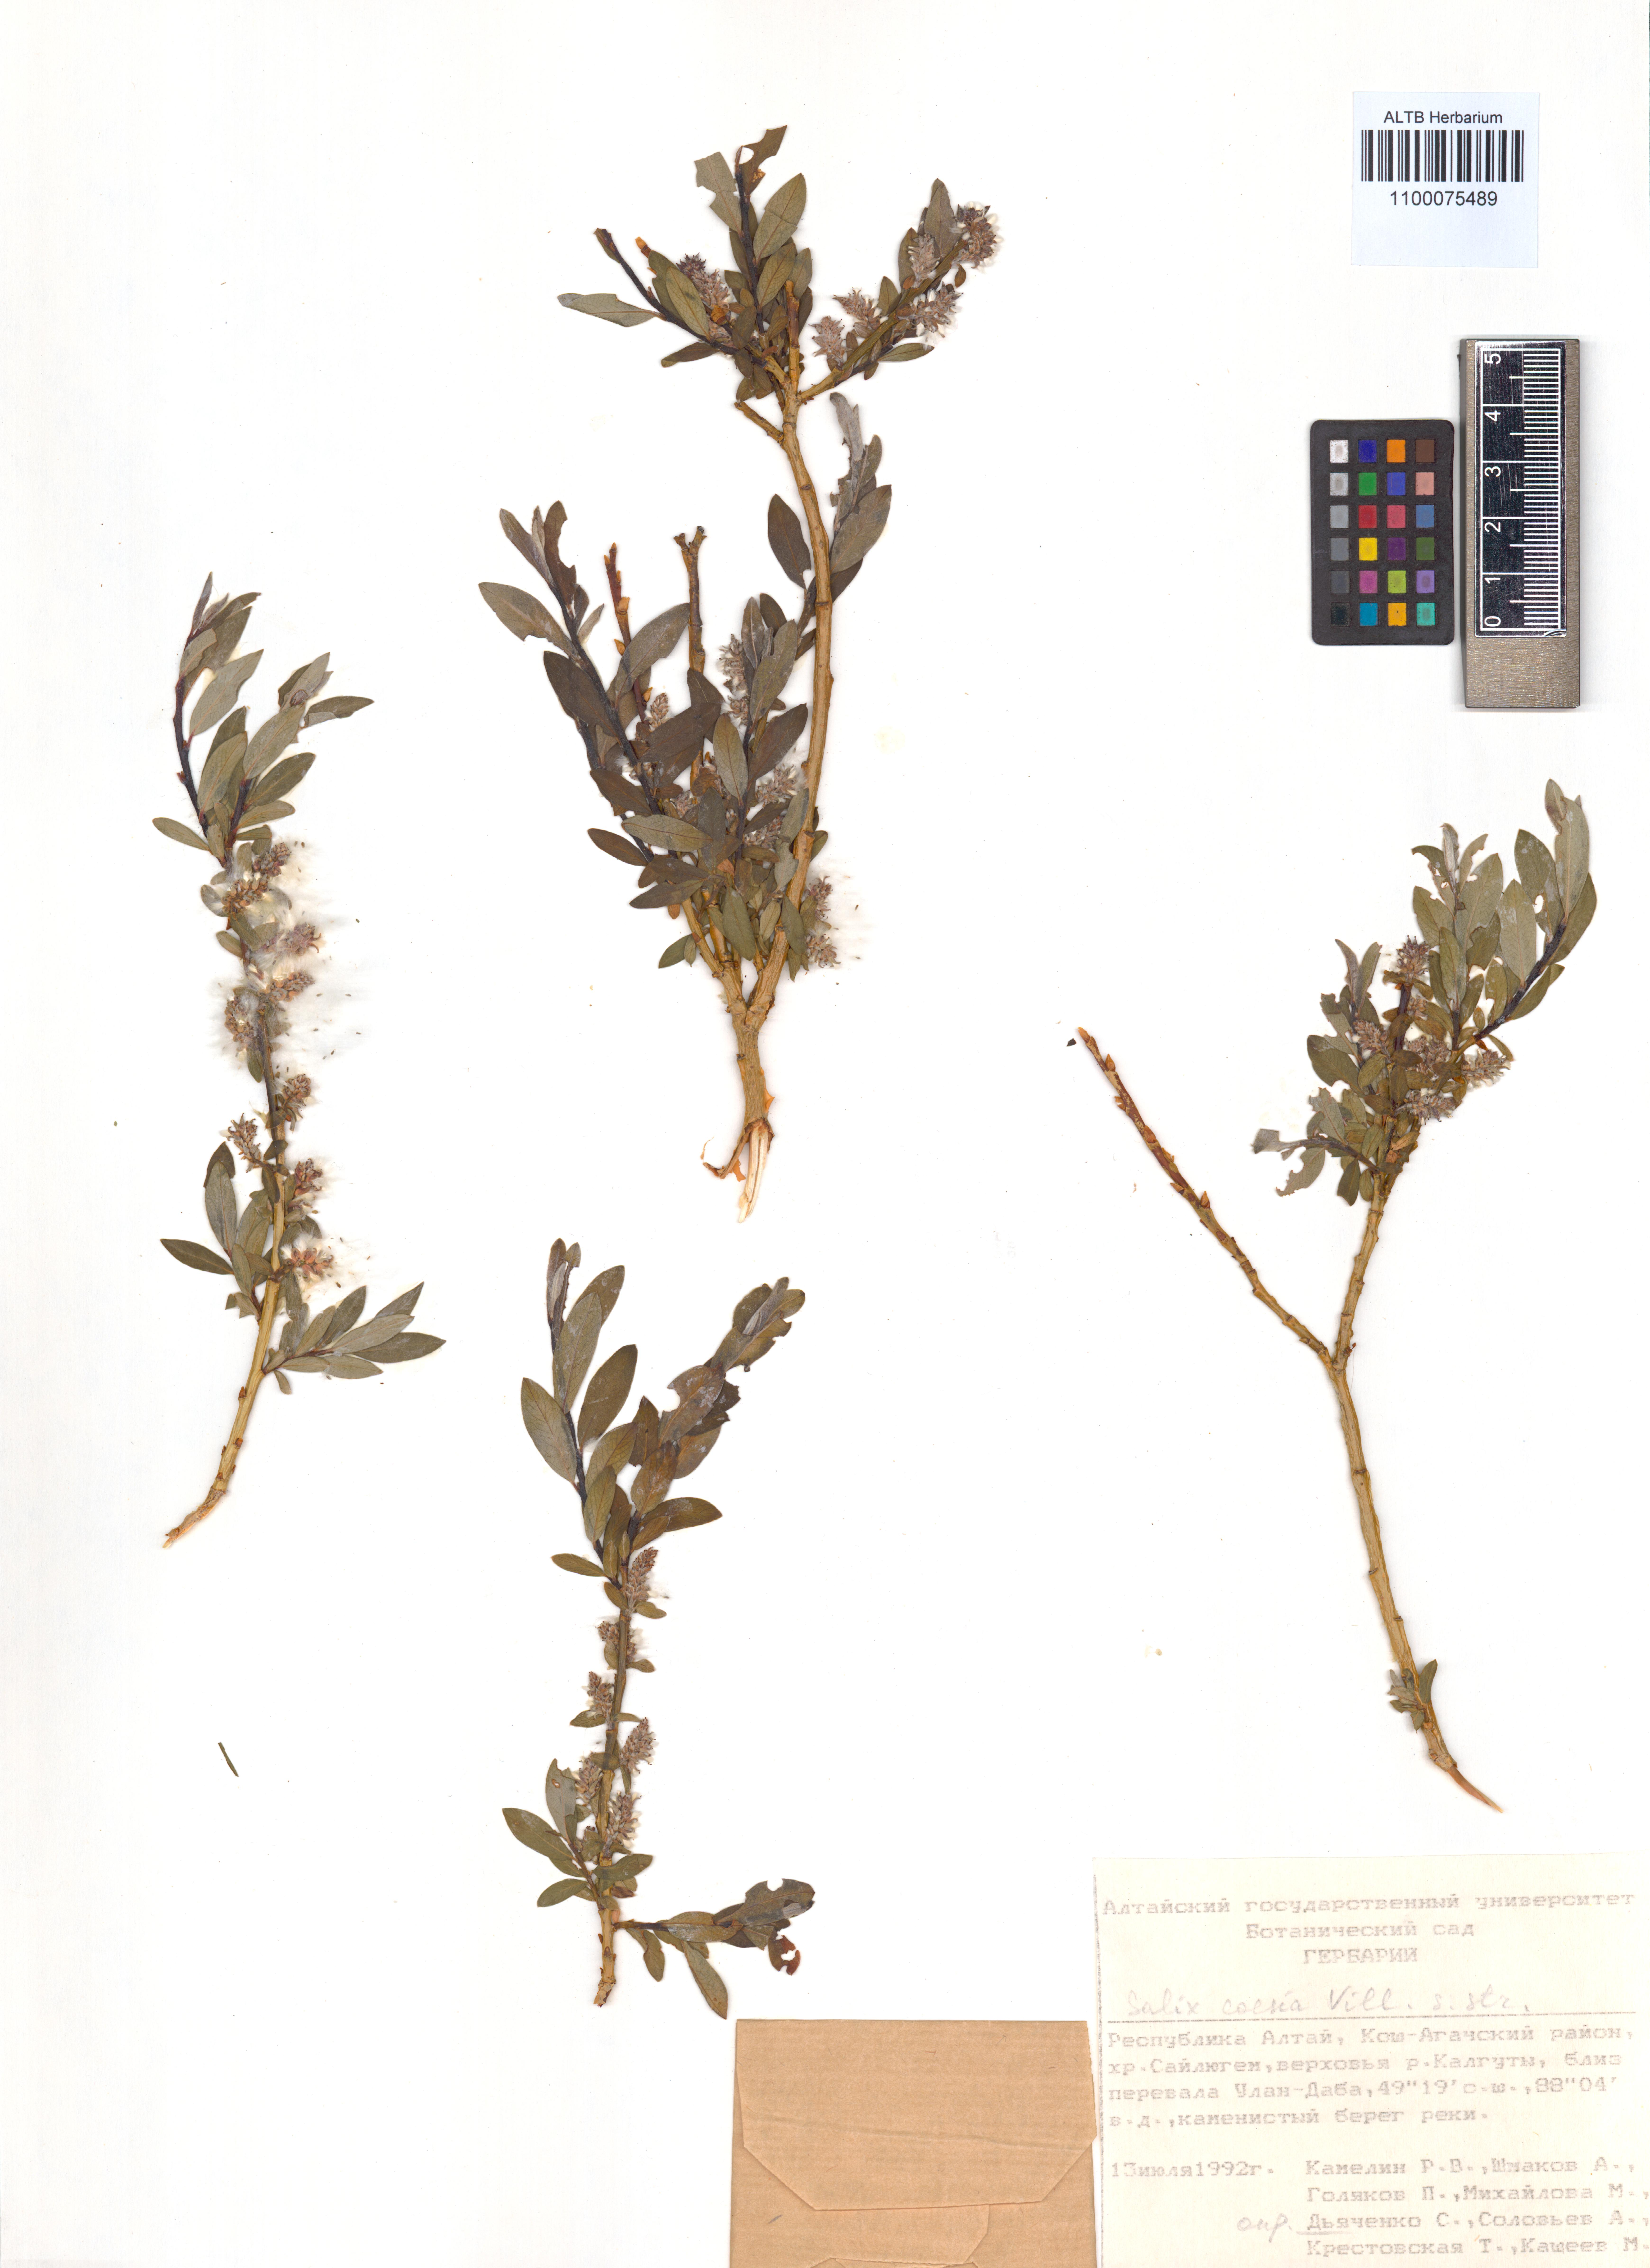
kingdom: Plantae
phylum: Tracheophyta
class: Magnoliopsida
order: Malpighiales
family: Salicaceae
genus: Salix
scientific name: Salix caesia
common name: Blue willow
